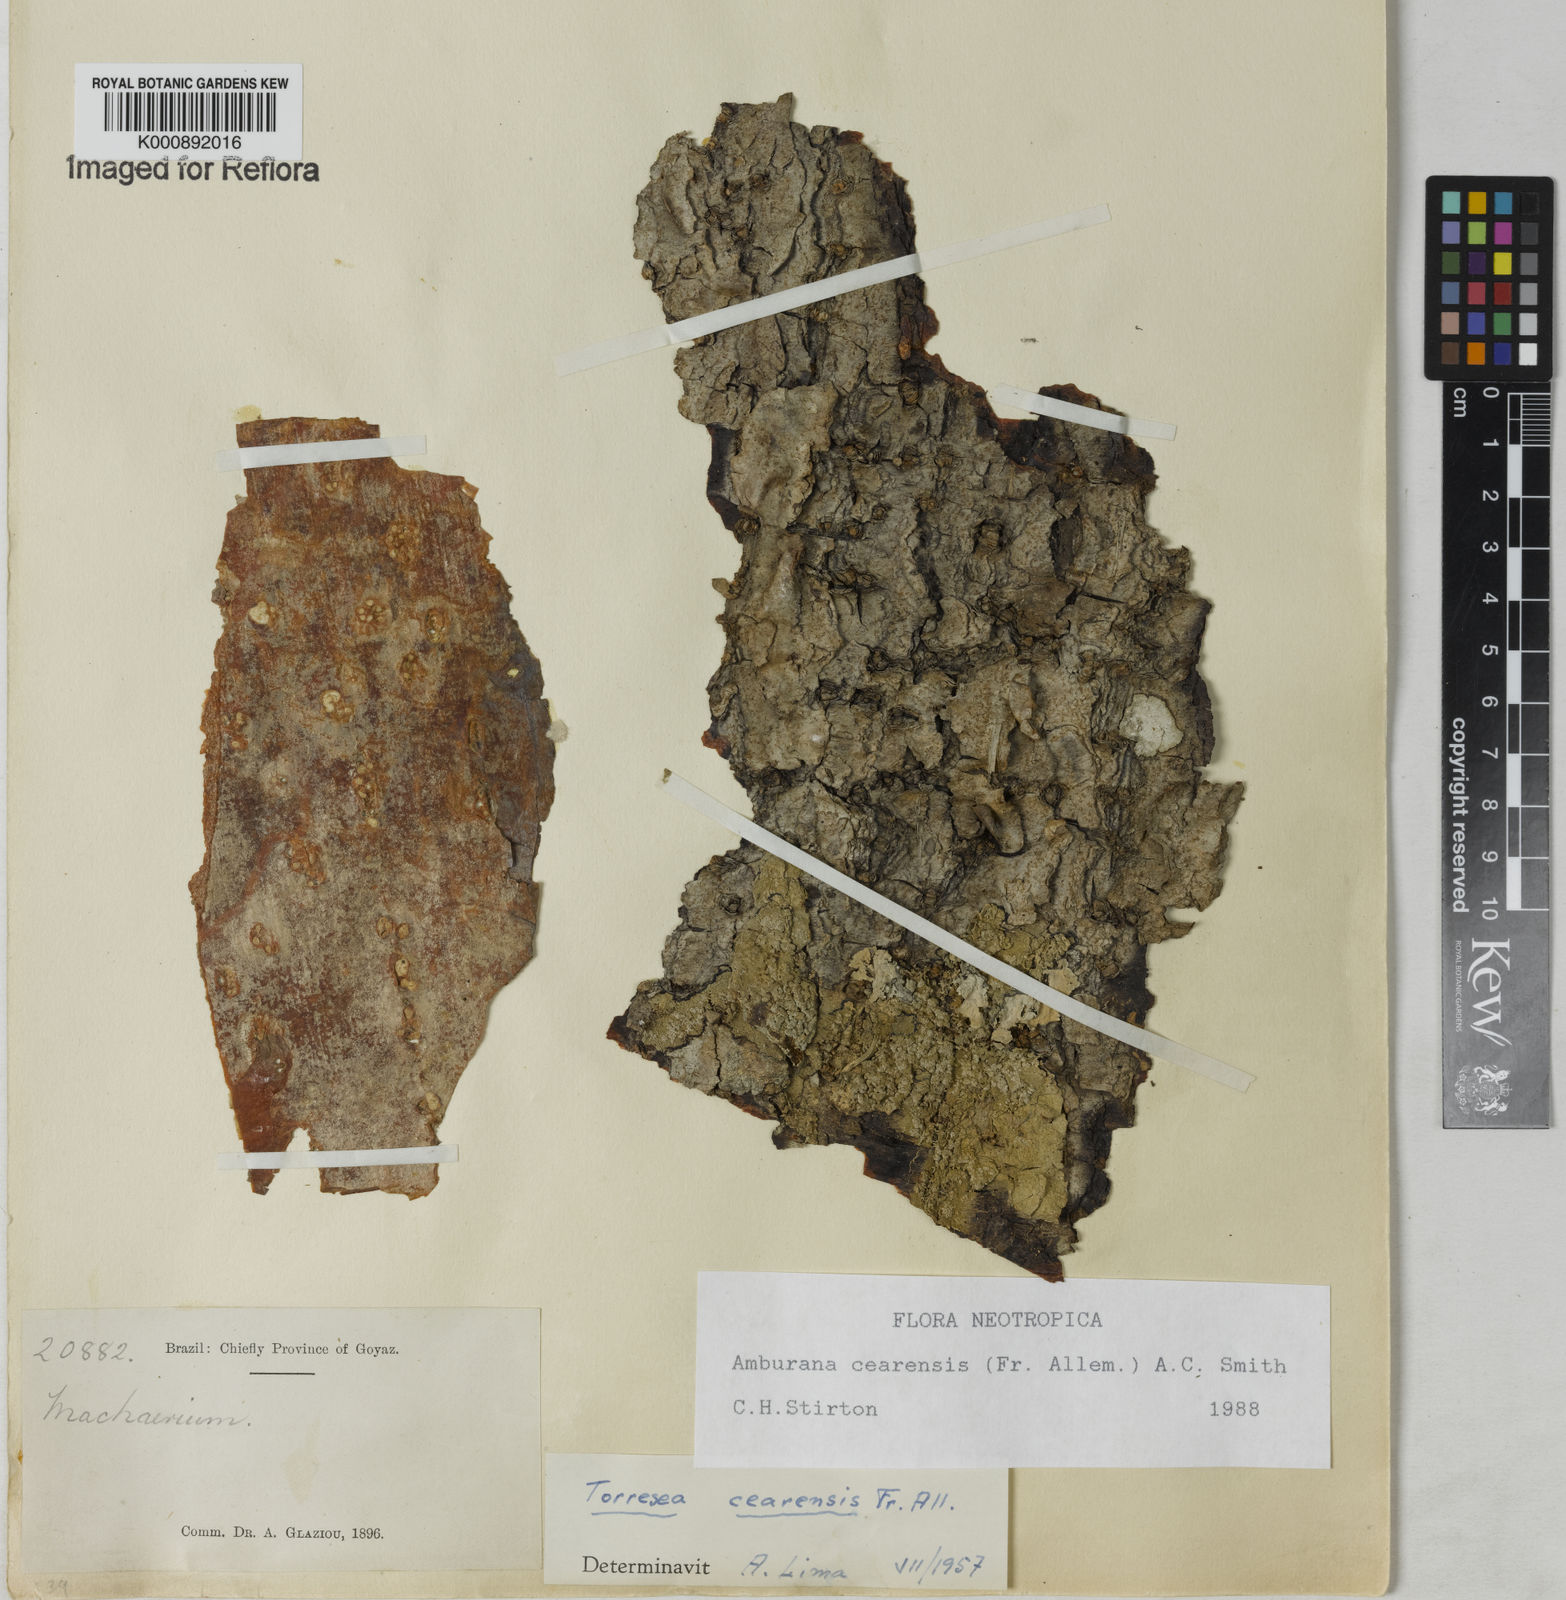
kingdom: Plantae
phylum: Tracheophyta
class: Magnoliopsida
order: Fabales
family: Fabaceae
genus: Amburana
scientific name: Amburana acreana
